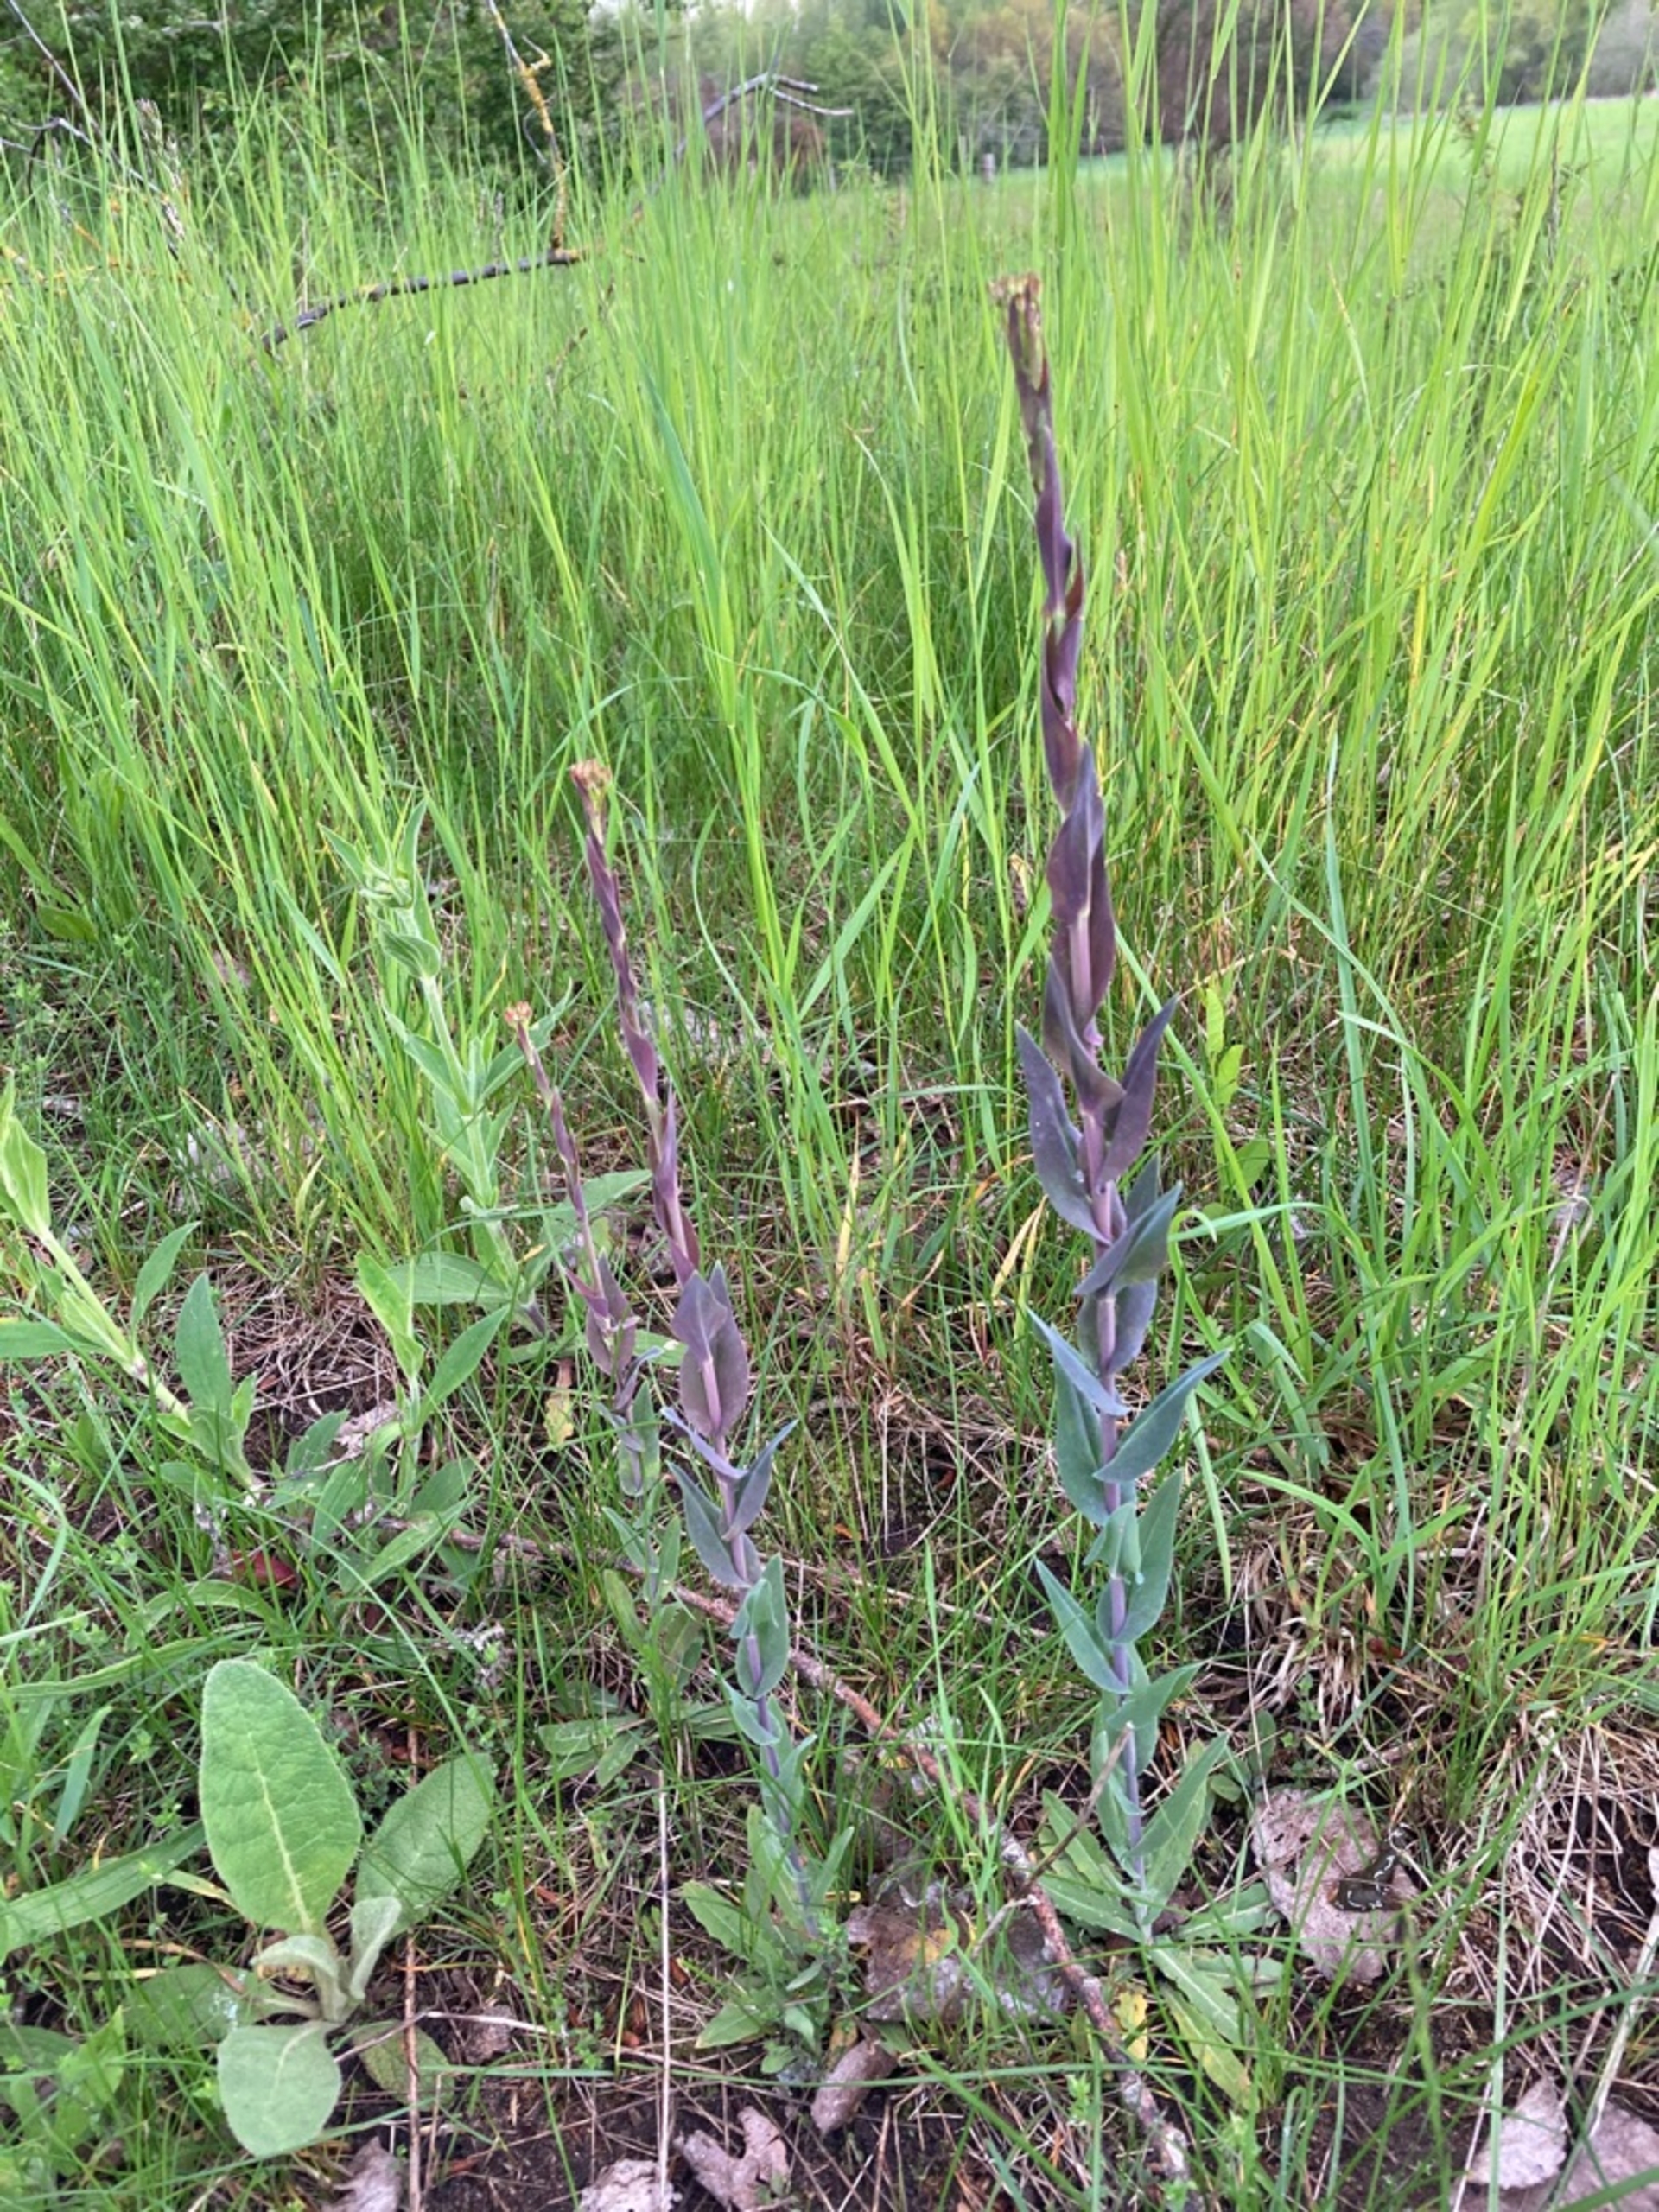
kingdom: Plantae
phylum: Tracheophyta
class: Magnoliopsida
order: Brassicales
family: Brassicaceae
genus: Turritis
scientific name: Turritis glabra
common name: Tårnurt
